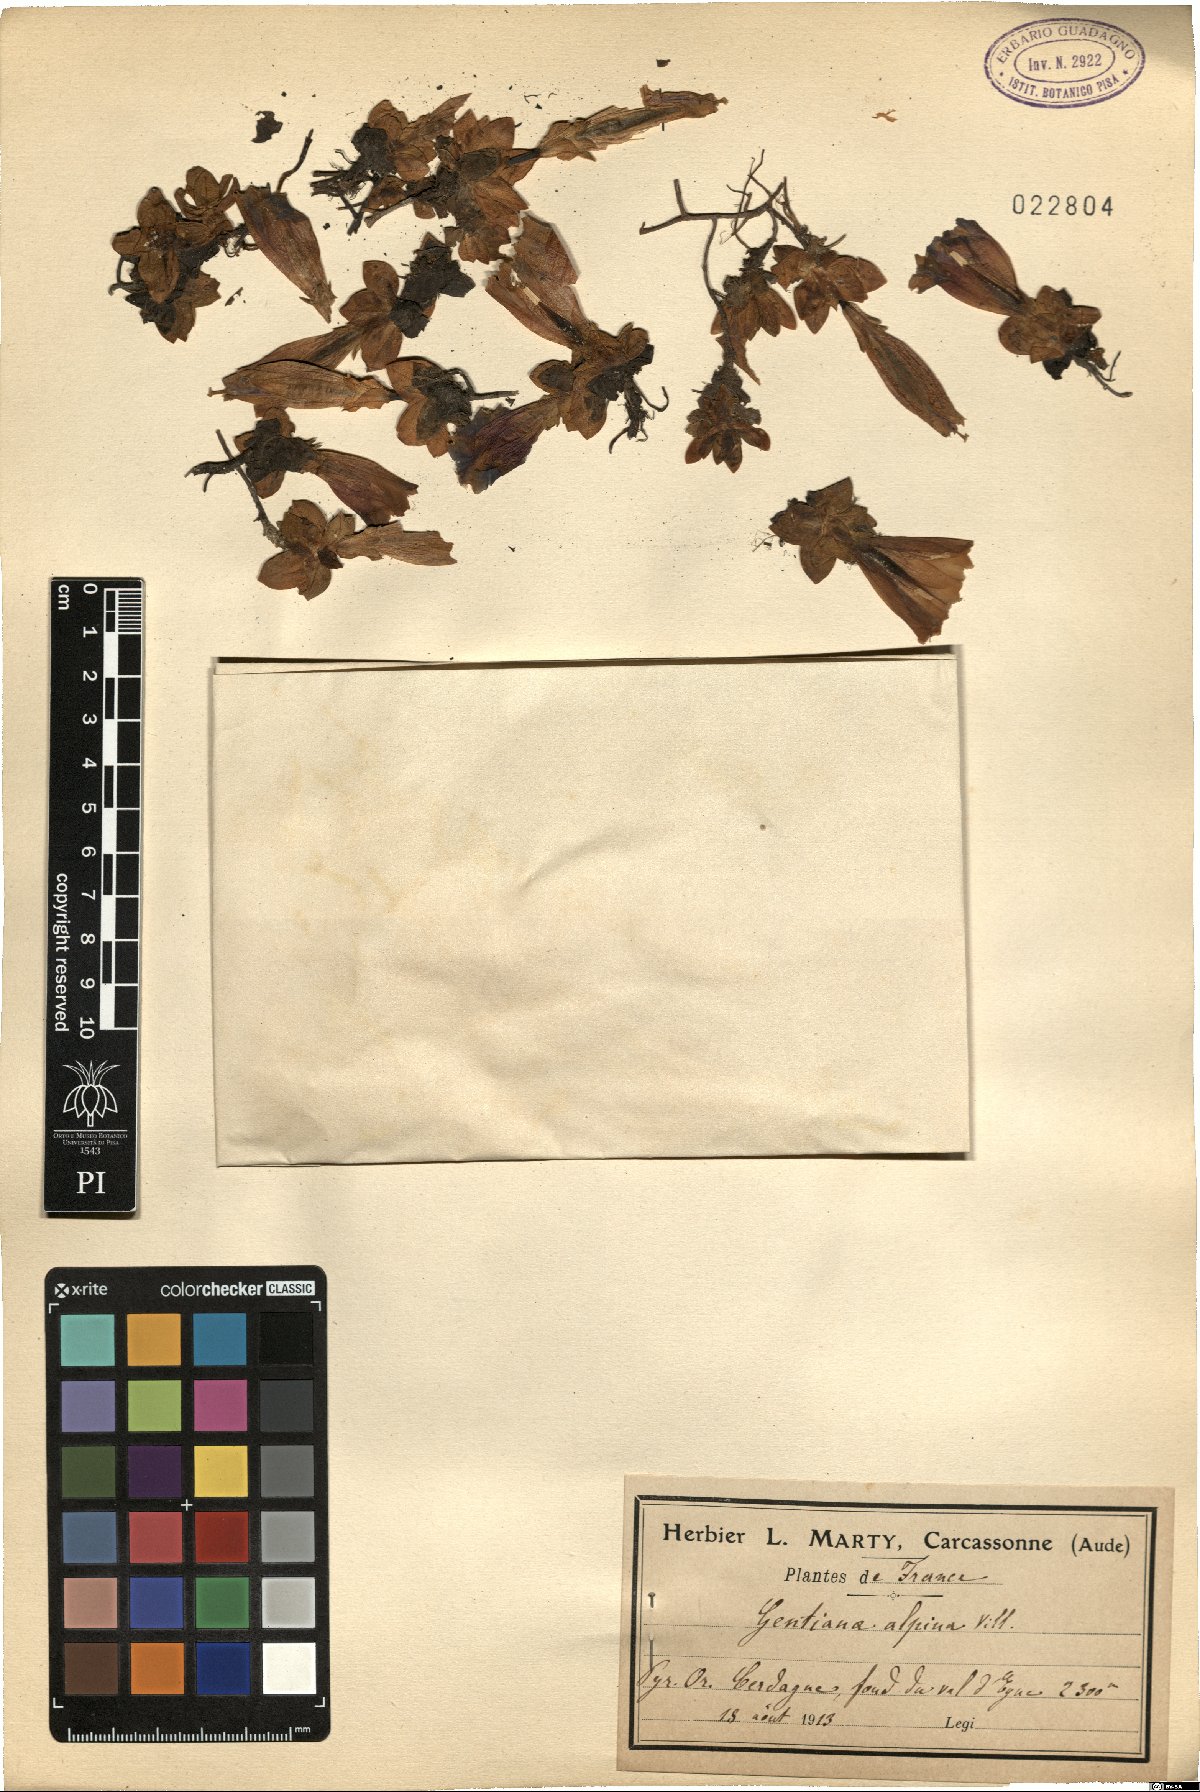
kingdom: Plantae
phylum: Tracheophyta
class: Magnoliopsida
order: Gentianales
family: Gentianaceae
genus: Gentiana
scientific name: Gentiana alpina
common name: Southern gentian
